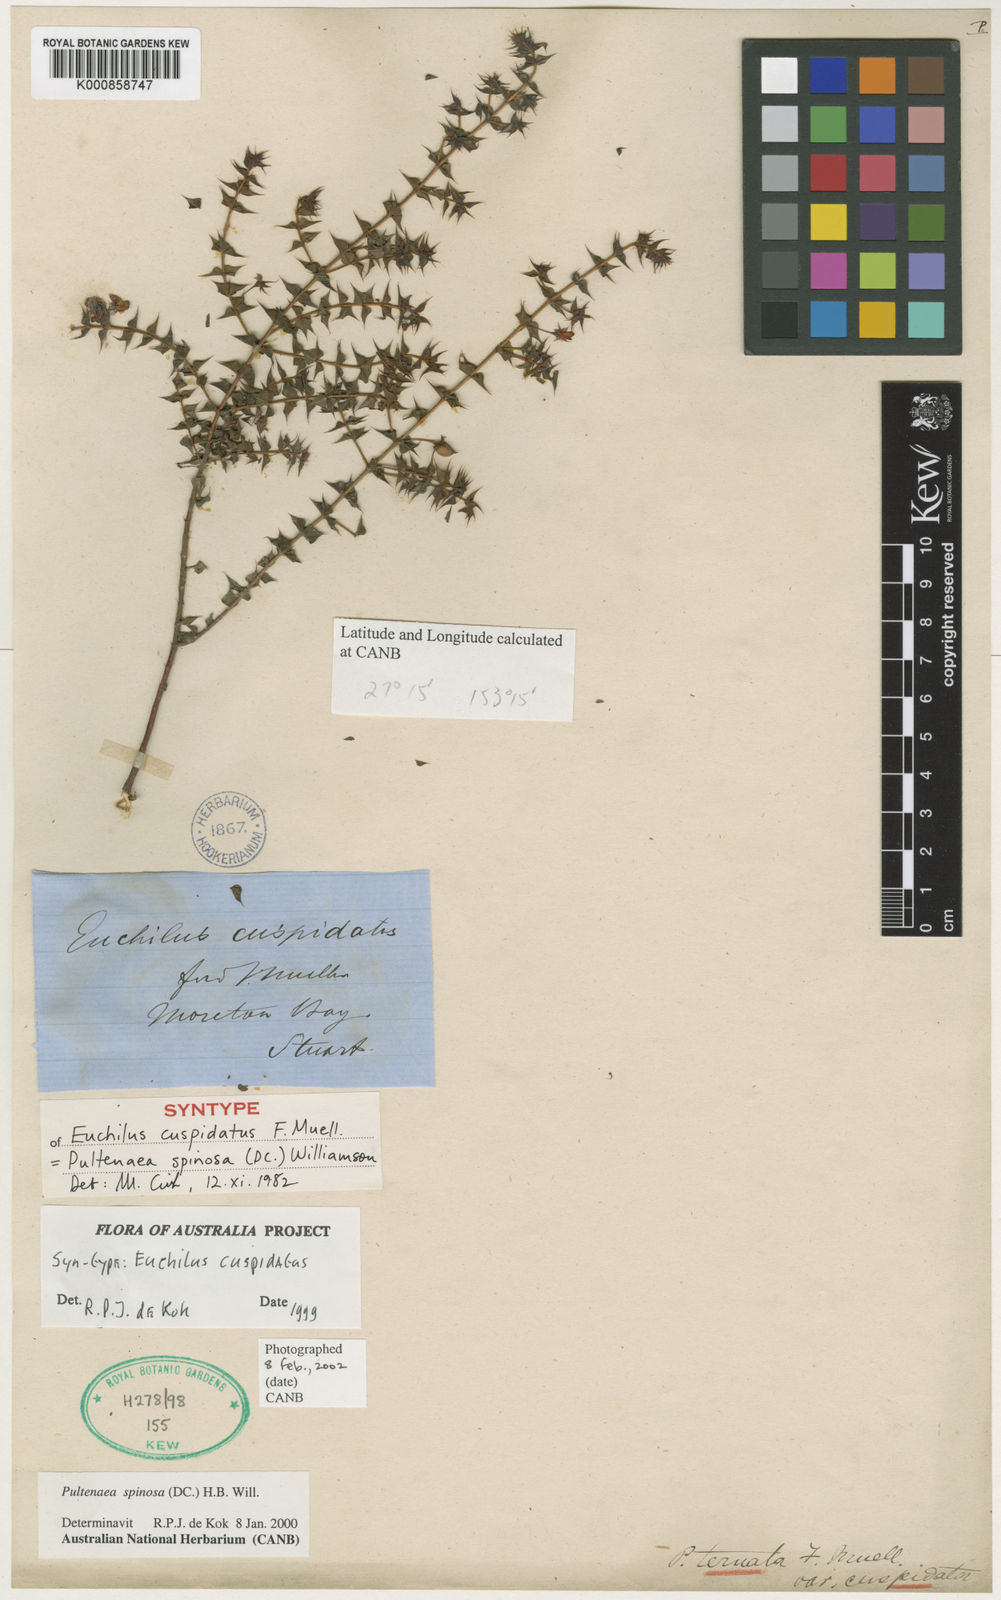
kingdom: Plantae
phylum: Tracheophyta
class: Magnoliopsida
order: Fabales
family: Fabaceae
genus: Pultenaea
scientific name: Pultenaea spinosa
